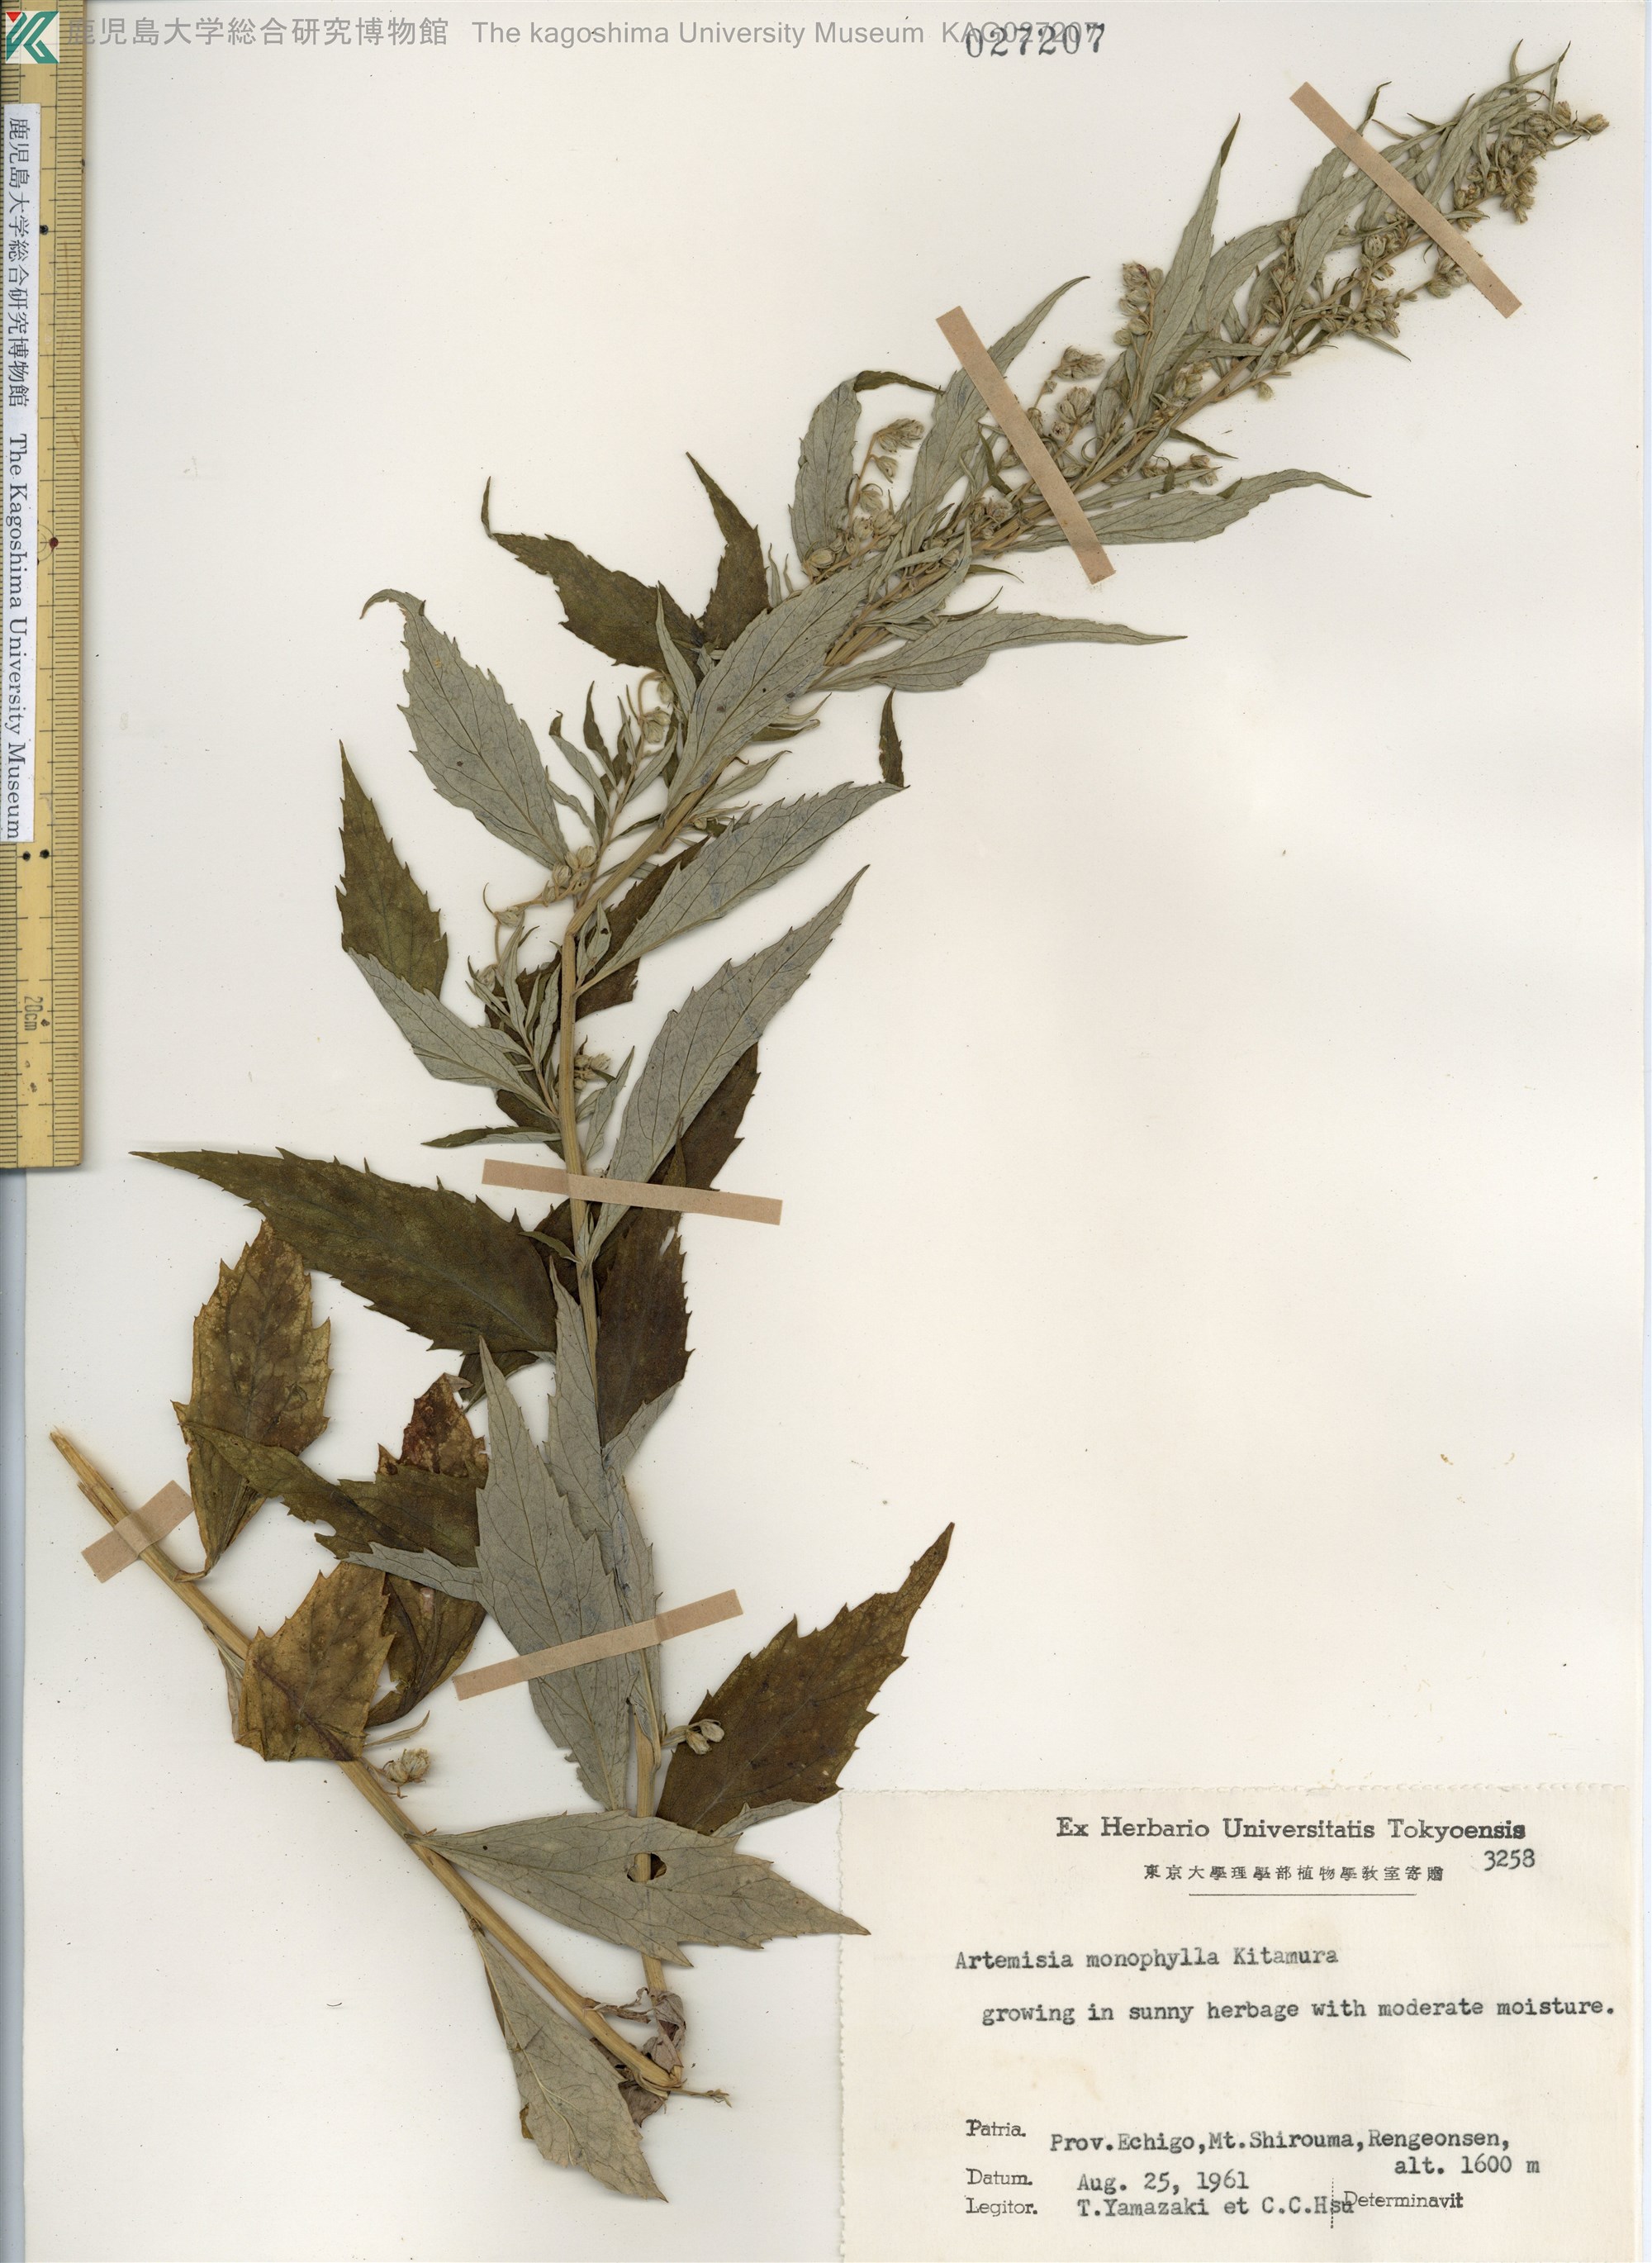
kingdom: Plantae
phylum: Tracheophyta
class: Magnoliopsida
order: Asterales
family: Asteraceae
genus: Artemisia
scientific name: Artemisia monophylla
